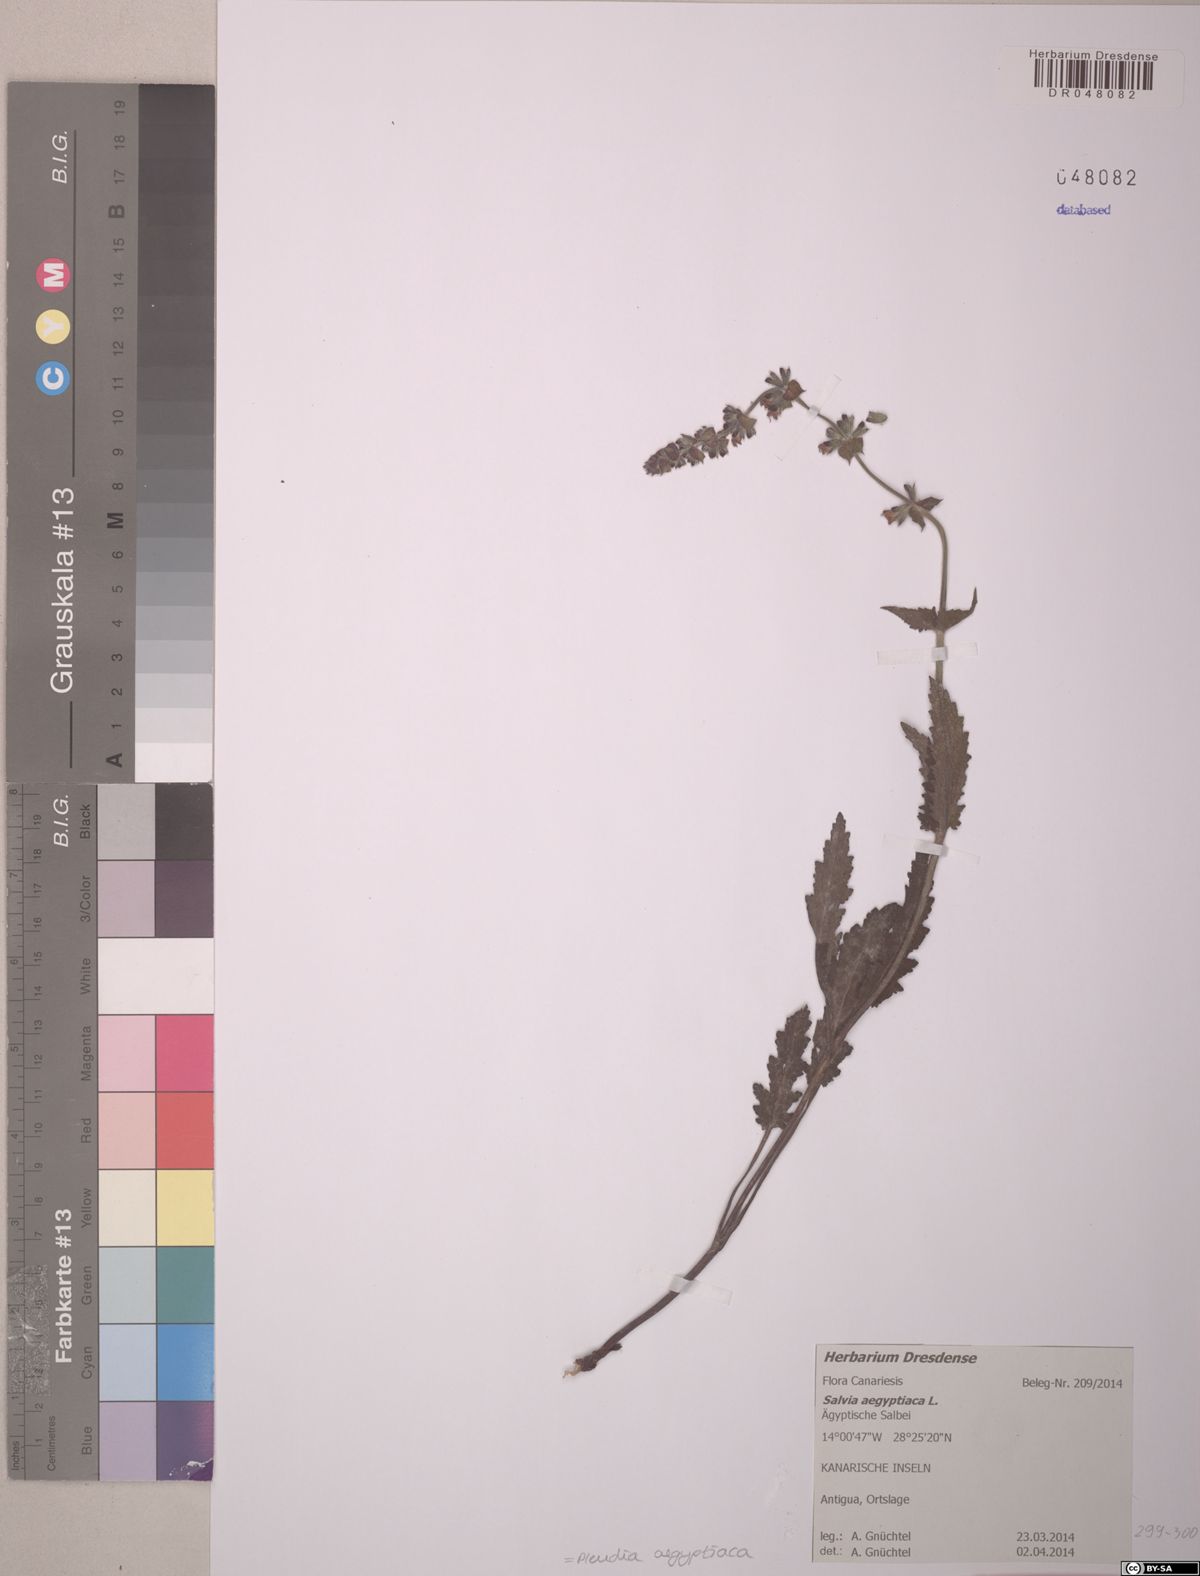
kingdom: Plantae
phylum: Tracheophyta
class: Magnoliopsida
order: Lamiales
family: Lamiaceae
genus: Salvia
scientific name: Salvia aegyptiaca
